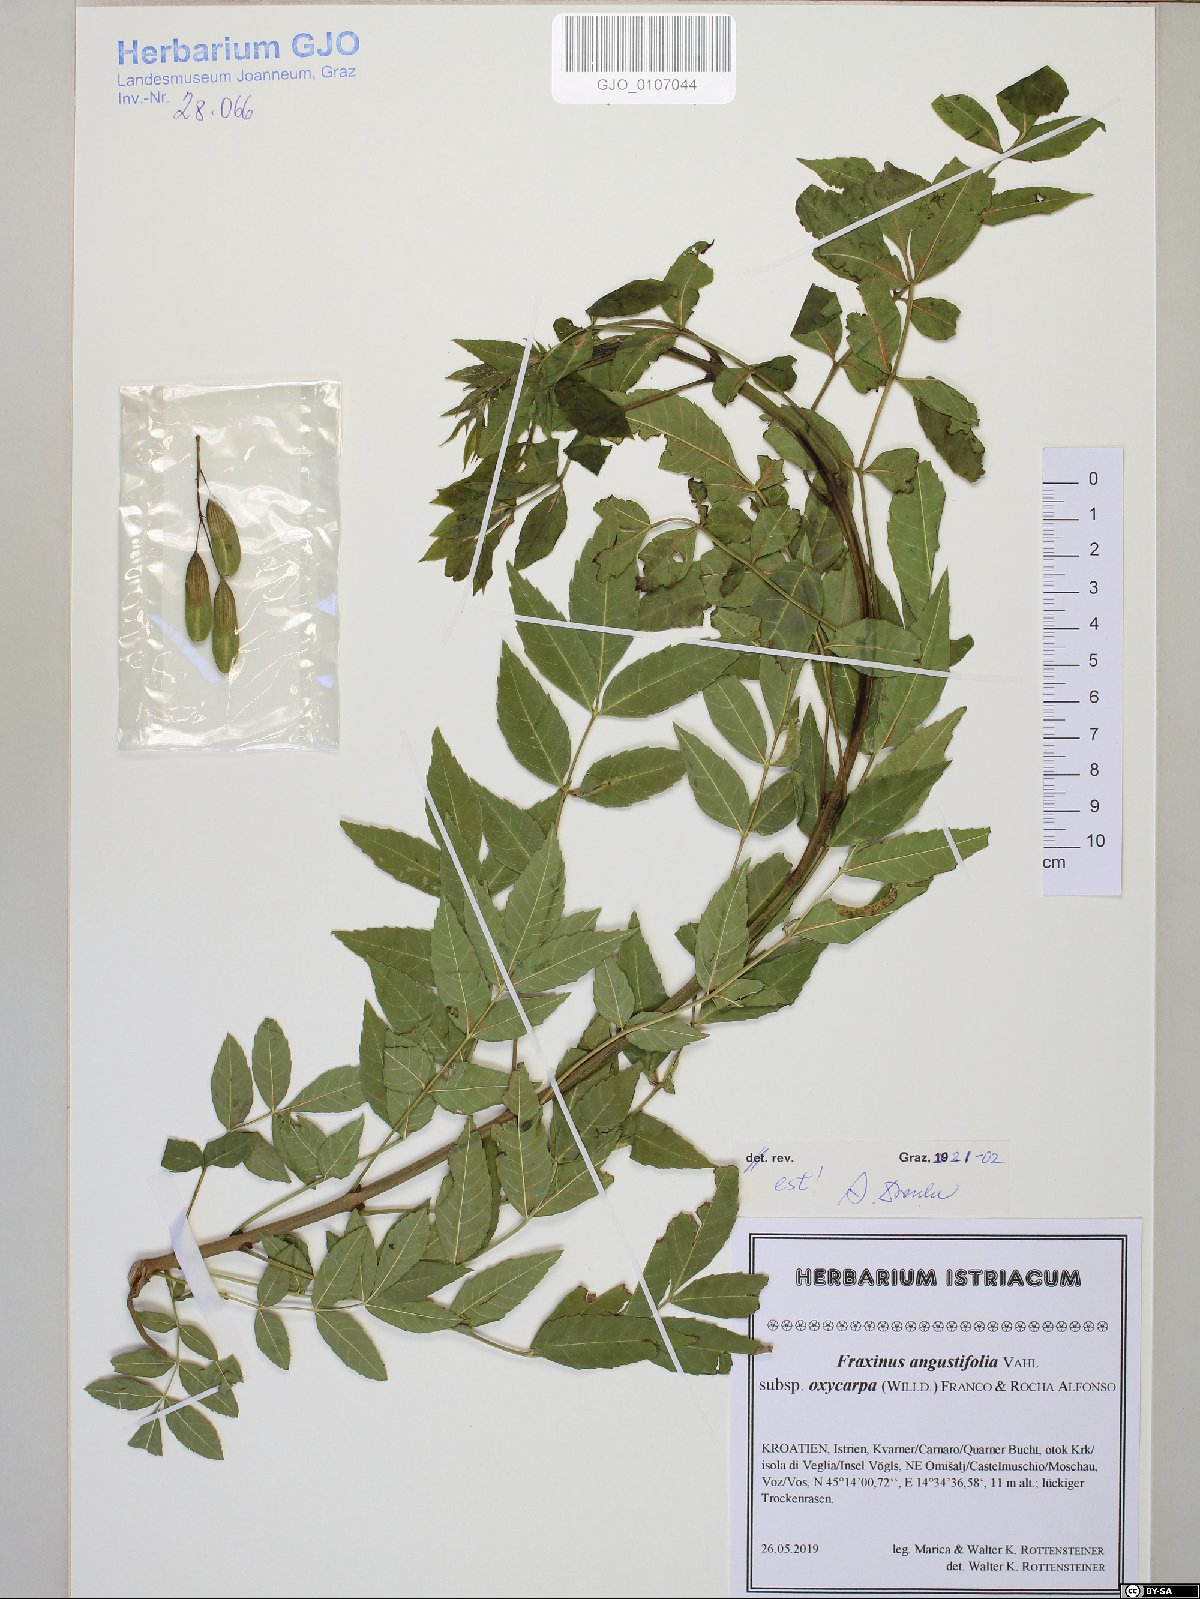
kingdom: Plantae
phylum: Tracheophyta
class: Magnoliopsida
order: Lamiales
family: Oleaceae
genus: Fraxinus
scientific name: Fraxinus angustifolia
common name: Narrow-leafed ash
